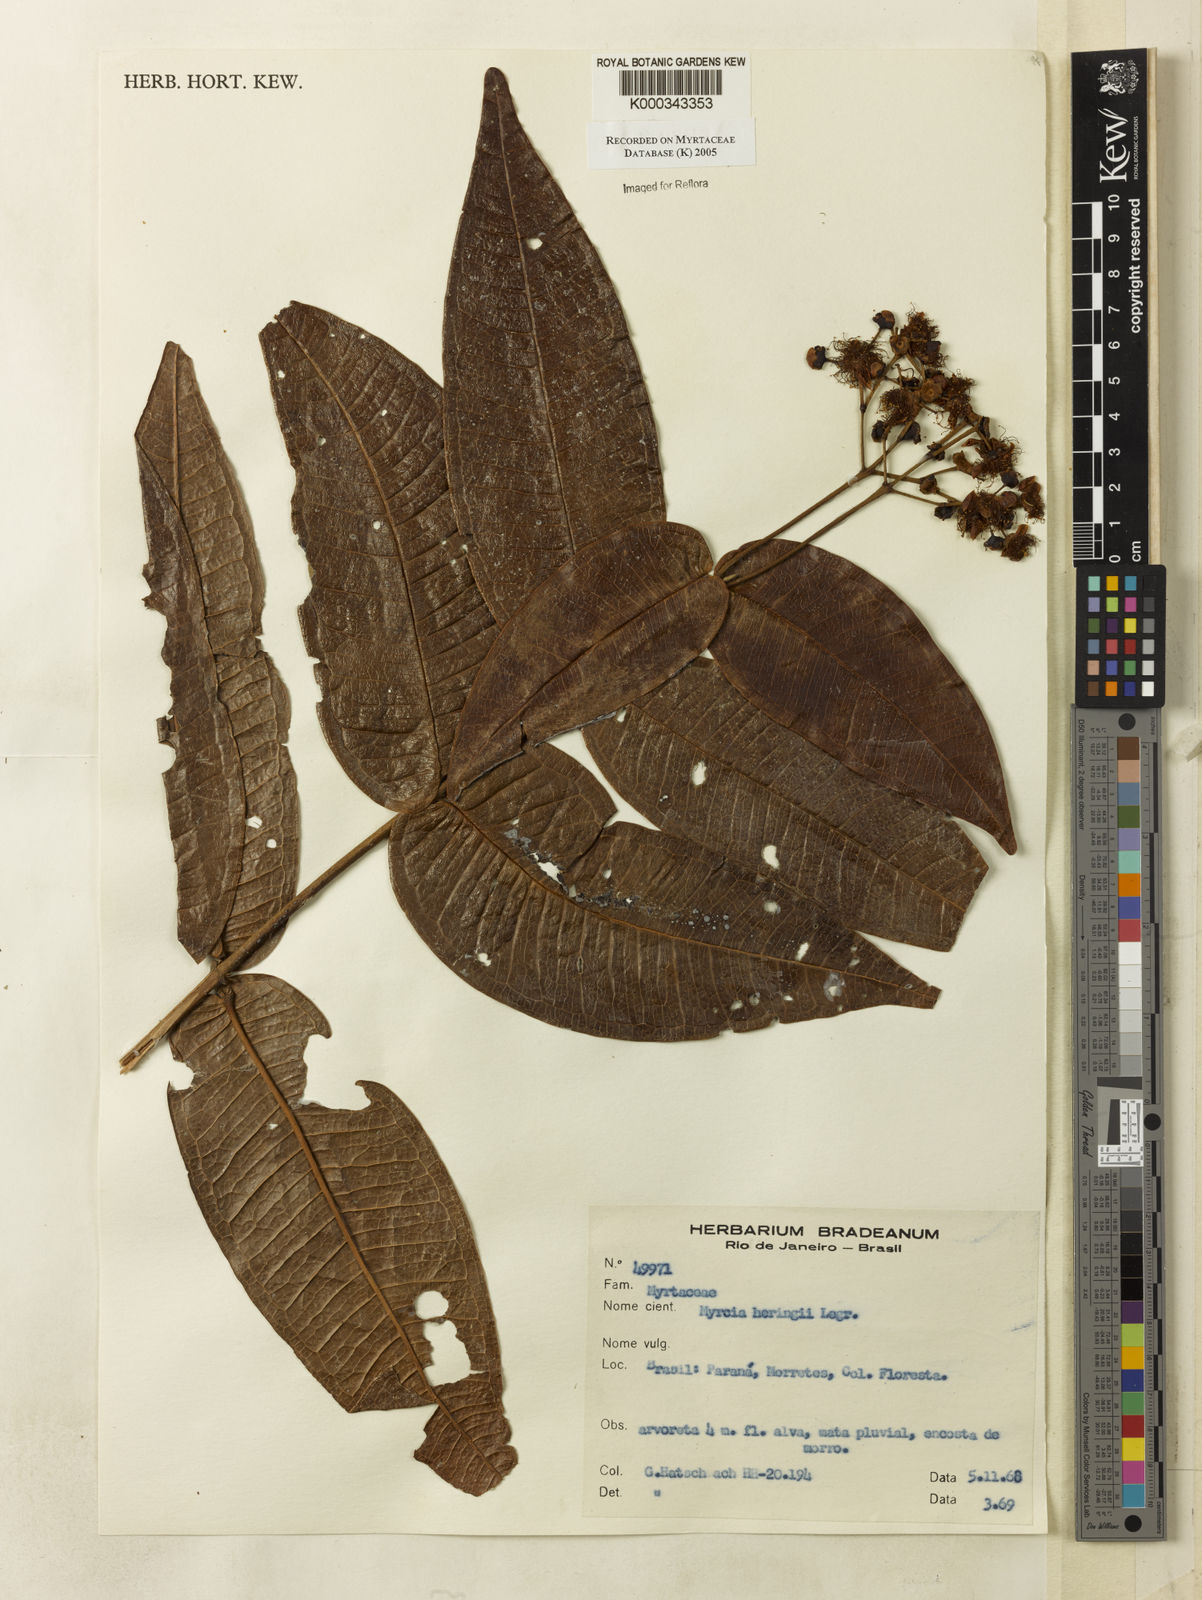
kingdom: Plantae
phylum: Tracheophyta
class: Magnoliopsida
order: Myrtales
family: Myrtaceae
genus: Myrcia
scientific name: Myrcia heringii
